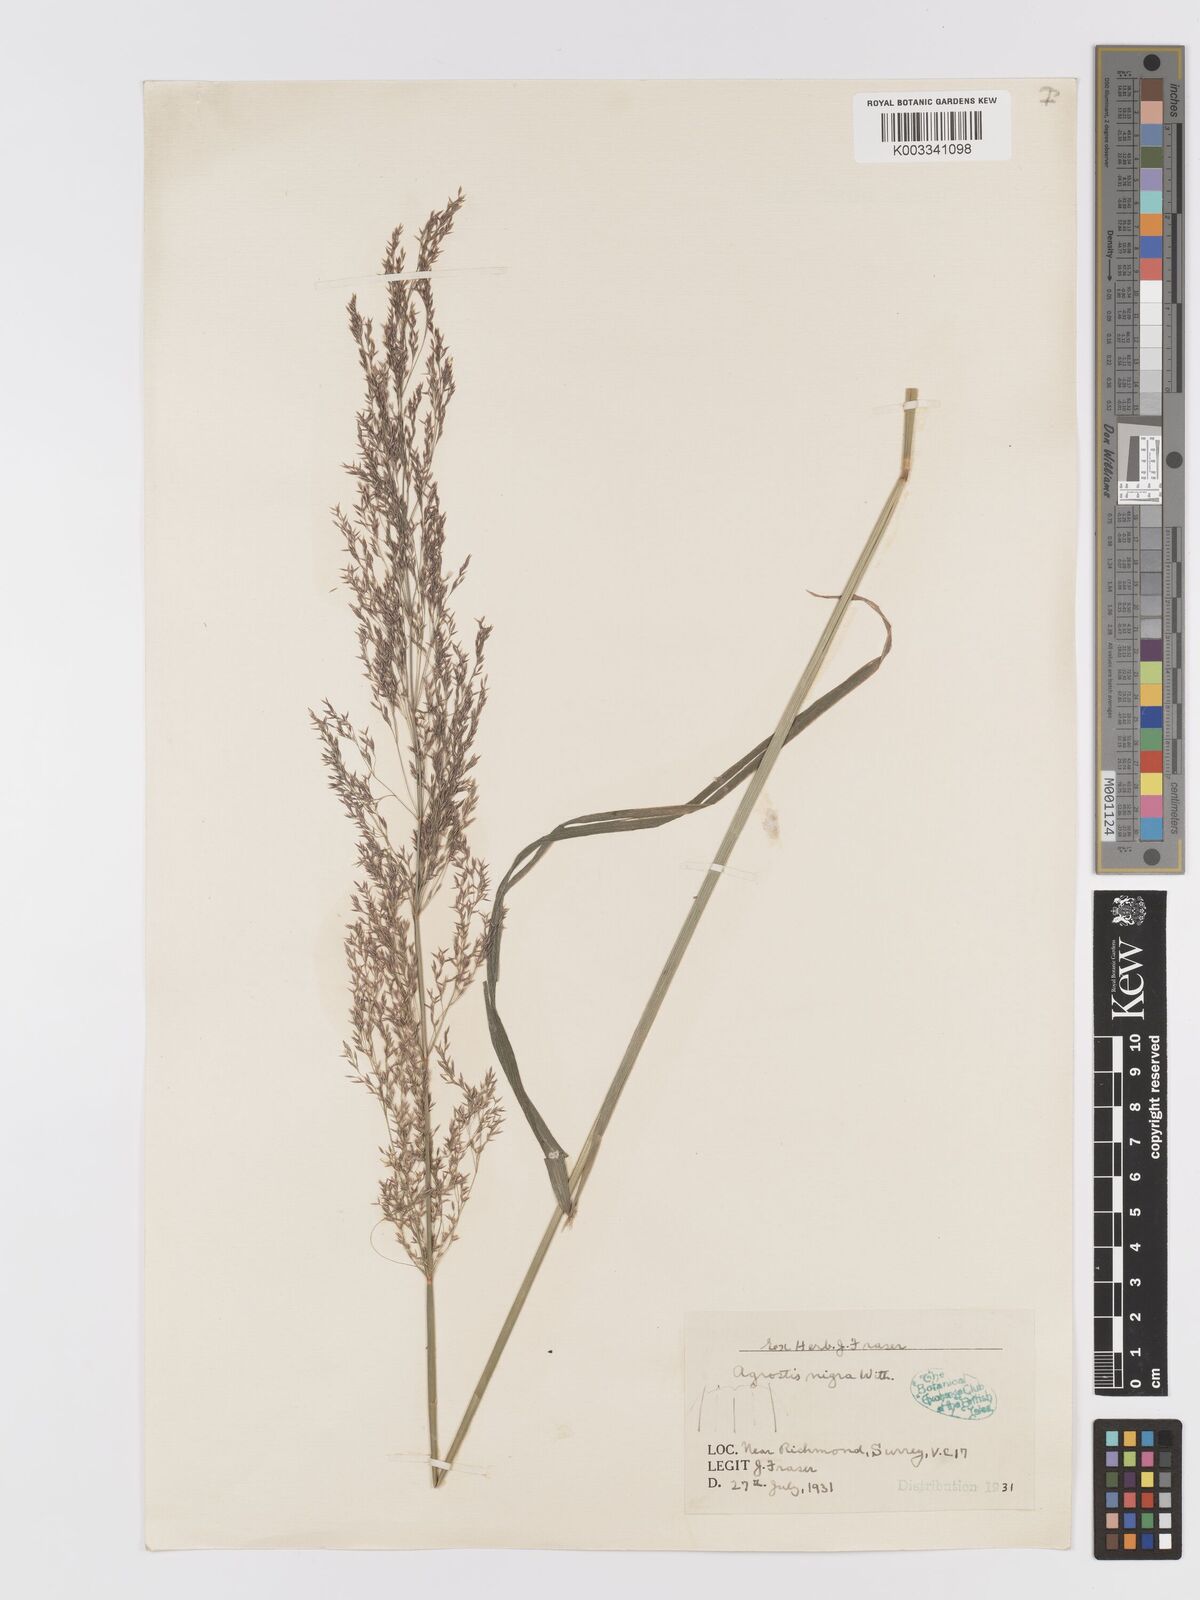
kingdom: Plantae
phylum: Tracheophyta
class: Liliopsida
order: Poales
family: Poaceae
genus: Agrostis
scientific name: Agrostis gigantea
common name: Black bent
